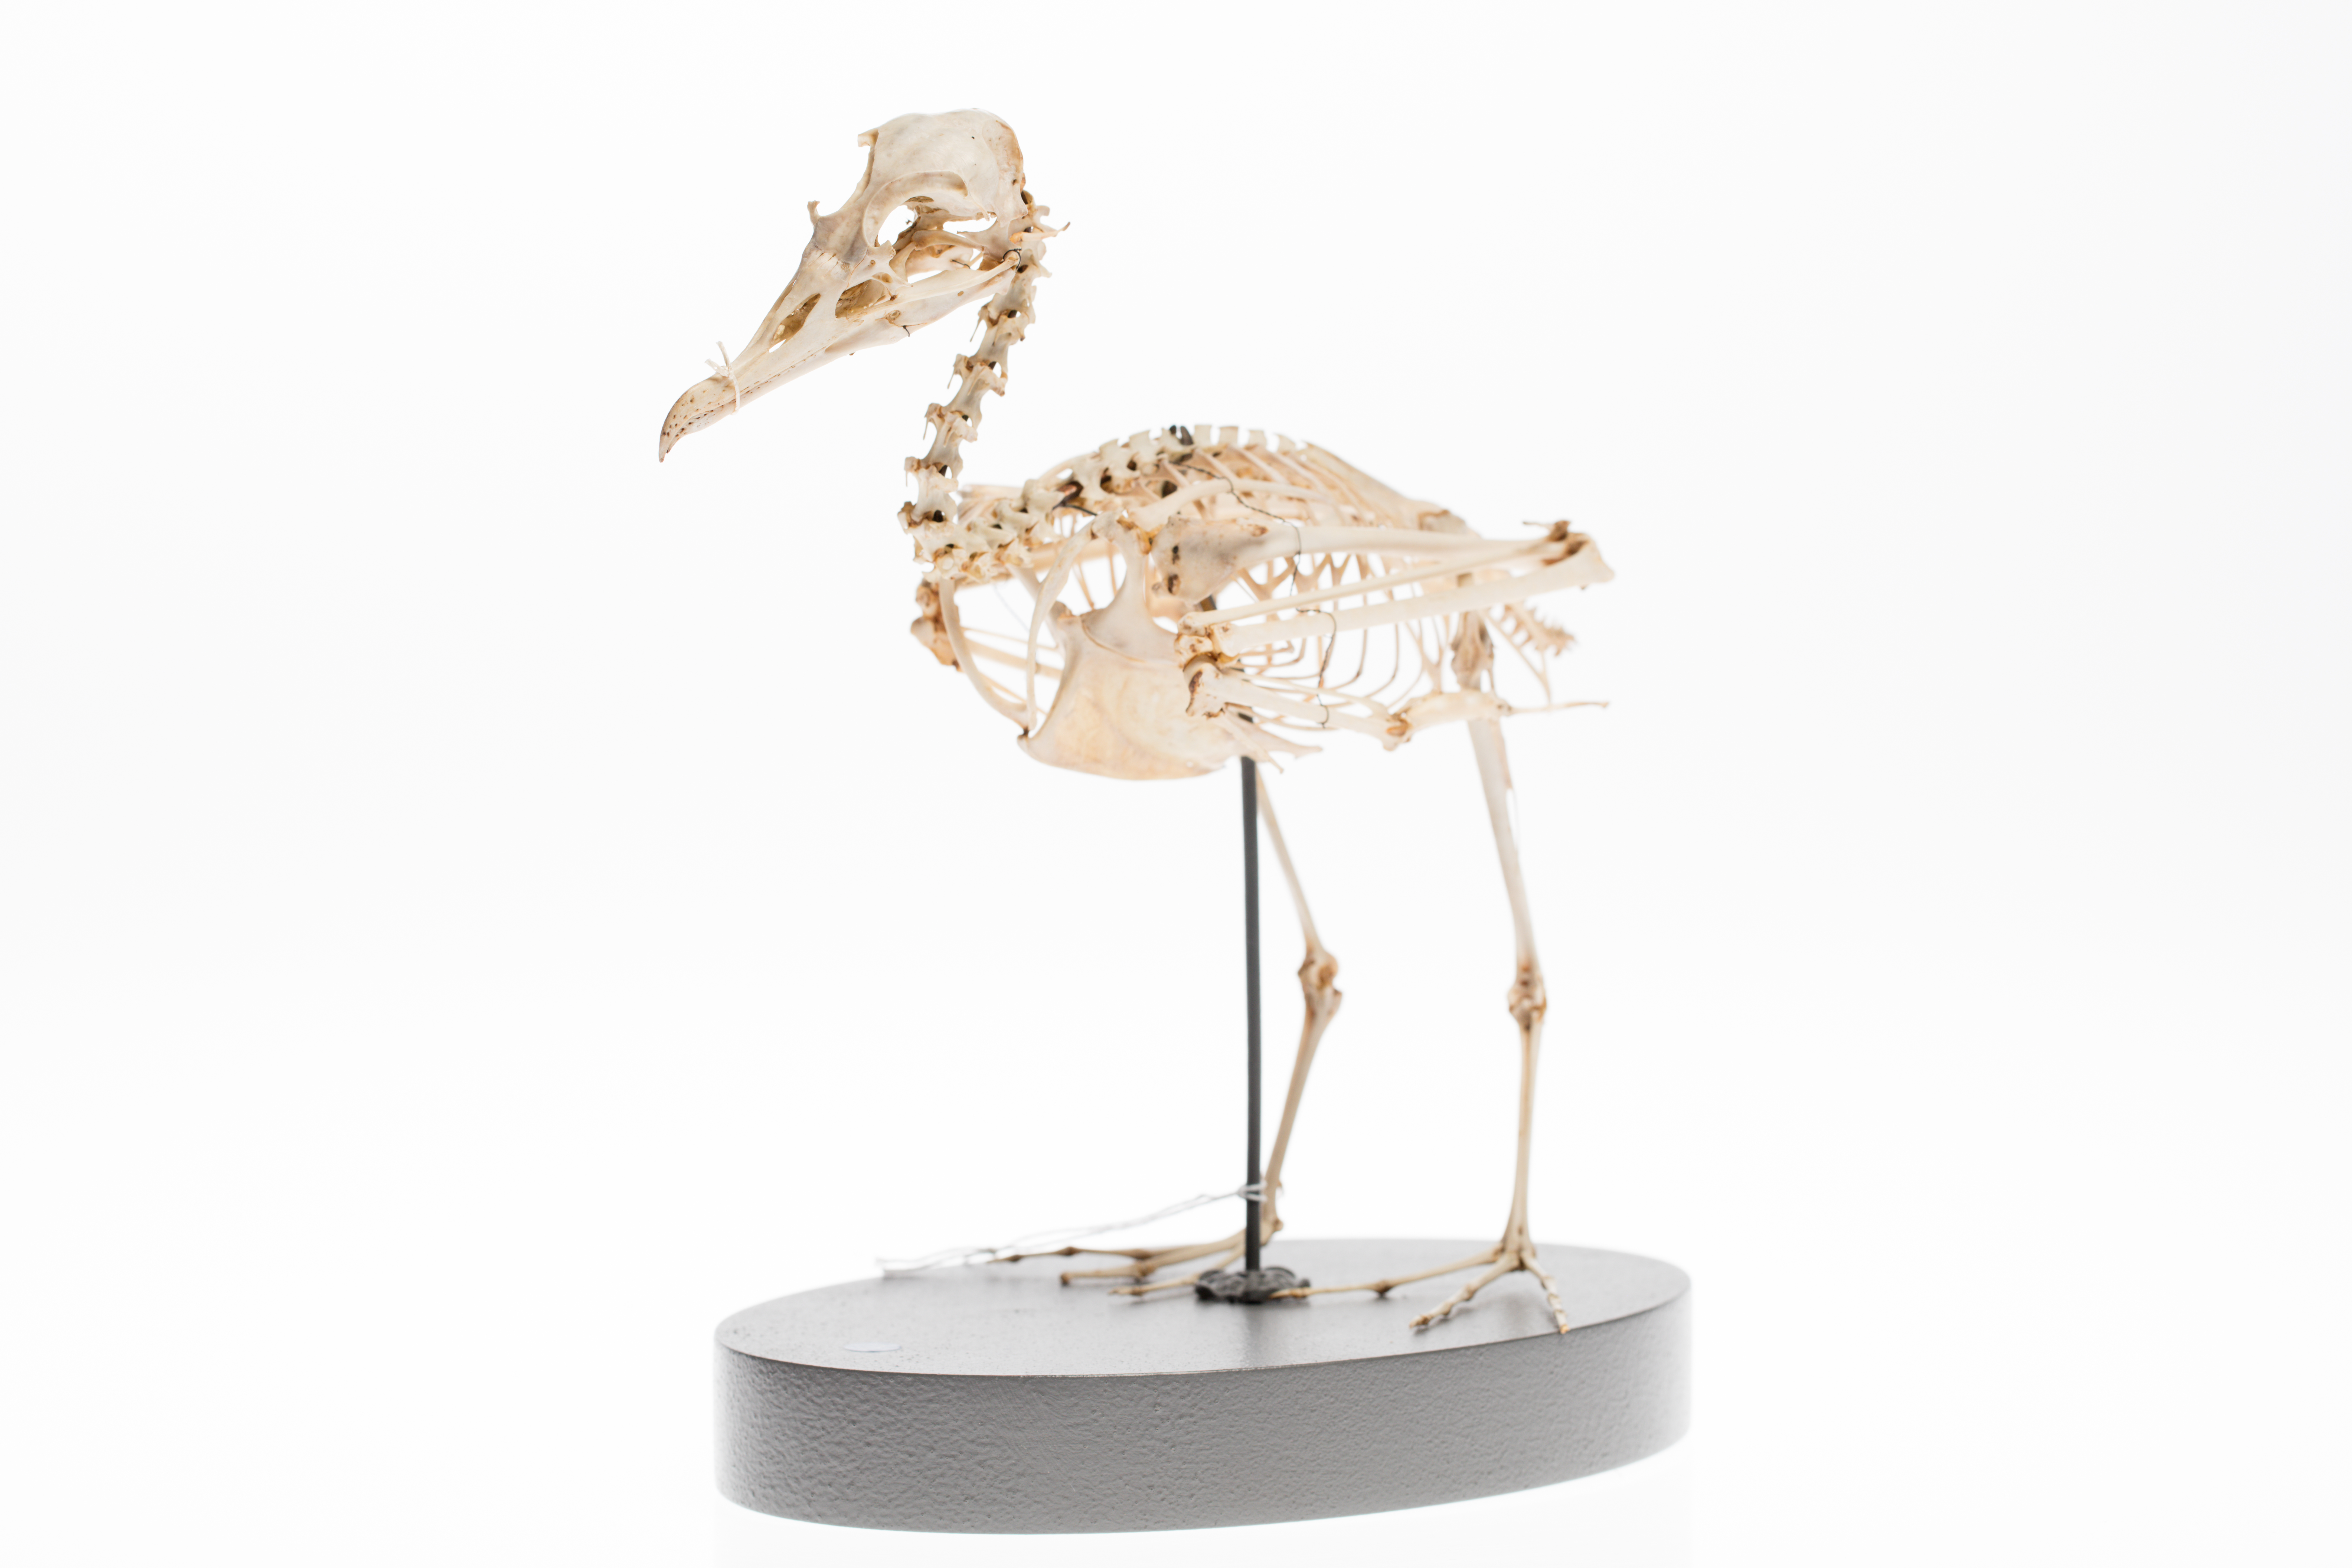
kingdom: Animalia
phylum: Chordata
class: Aves
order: Procellariiformes
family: Procellariidae
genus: Puffinus
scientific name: Puffinus carneipes
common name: Flesh-footed shearwater
